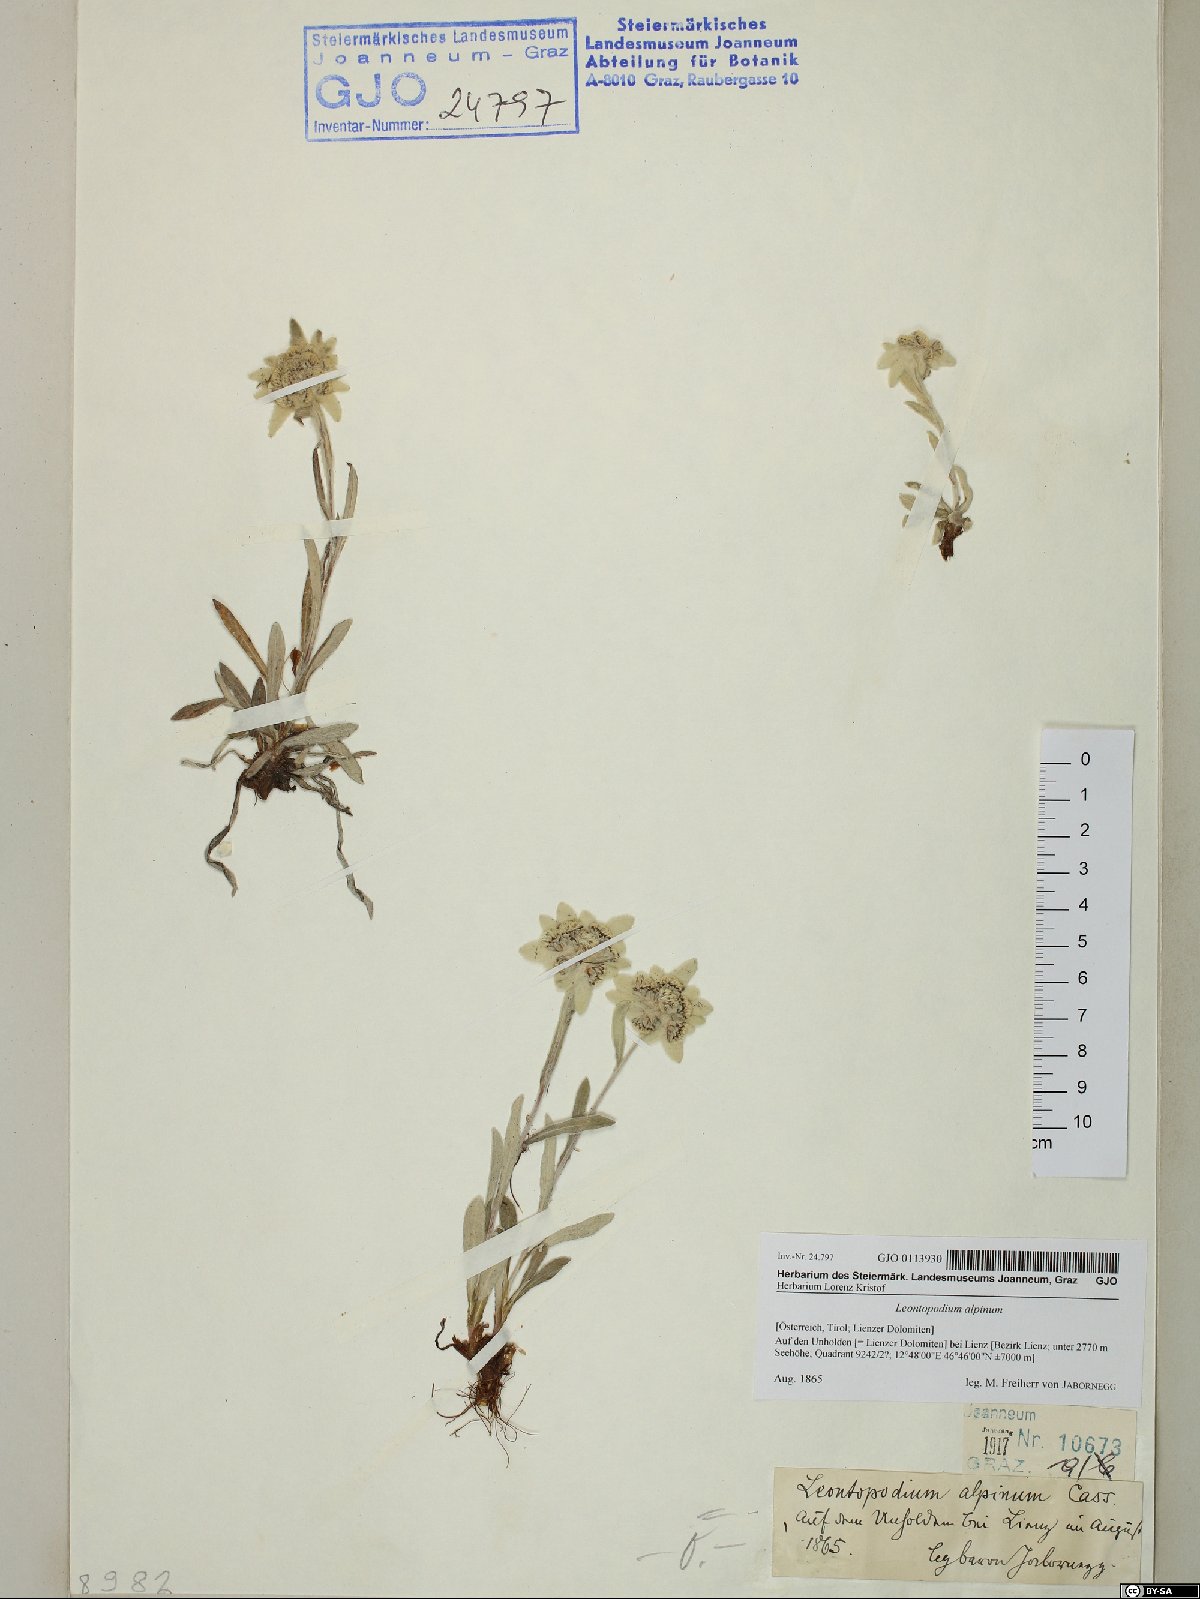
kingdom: Plantae
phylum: Tracheophyta
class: Magnoliopsida
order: Asterales
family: Asteraceae
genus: Leontopodium
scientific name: Leontopodium nivale
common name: Edelweiss
